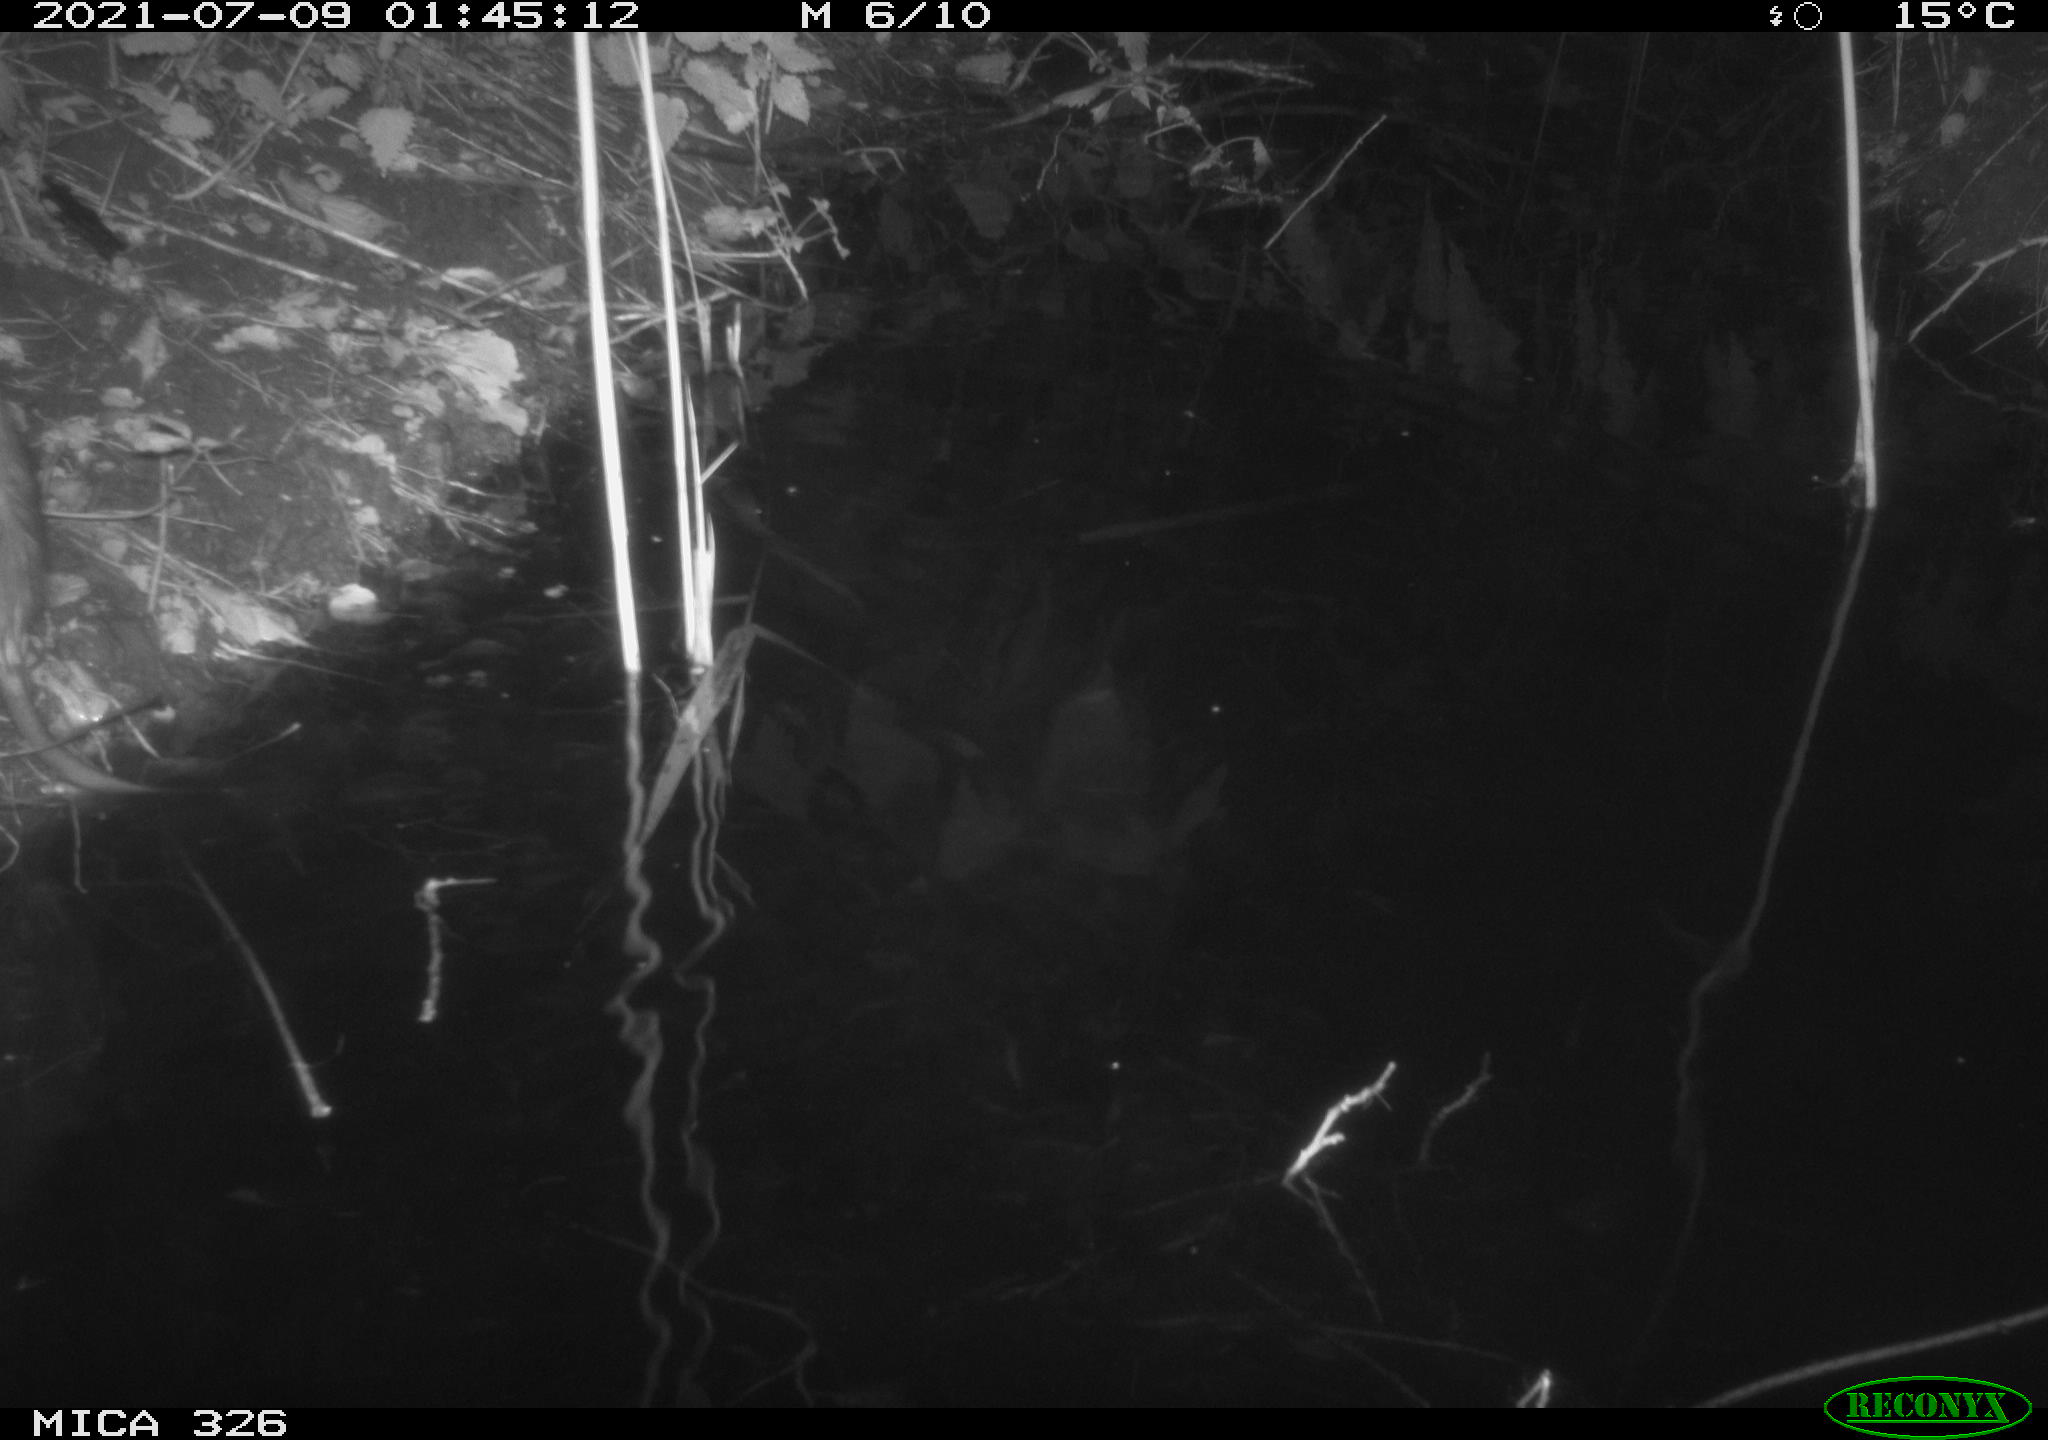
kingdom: Animalia
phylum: Chordata
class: Mammalia
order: Rodentia
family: Cricetidae
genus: Ondatra
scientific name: Ondatra zibethicus
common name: Muskrat
